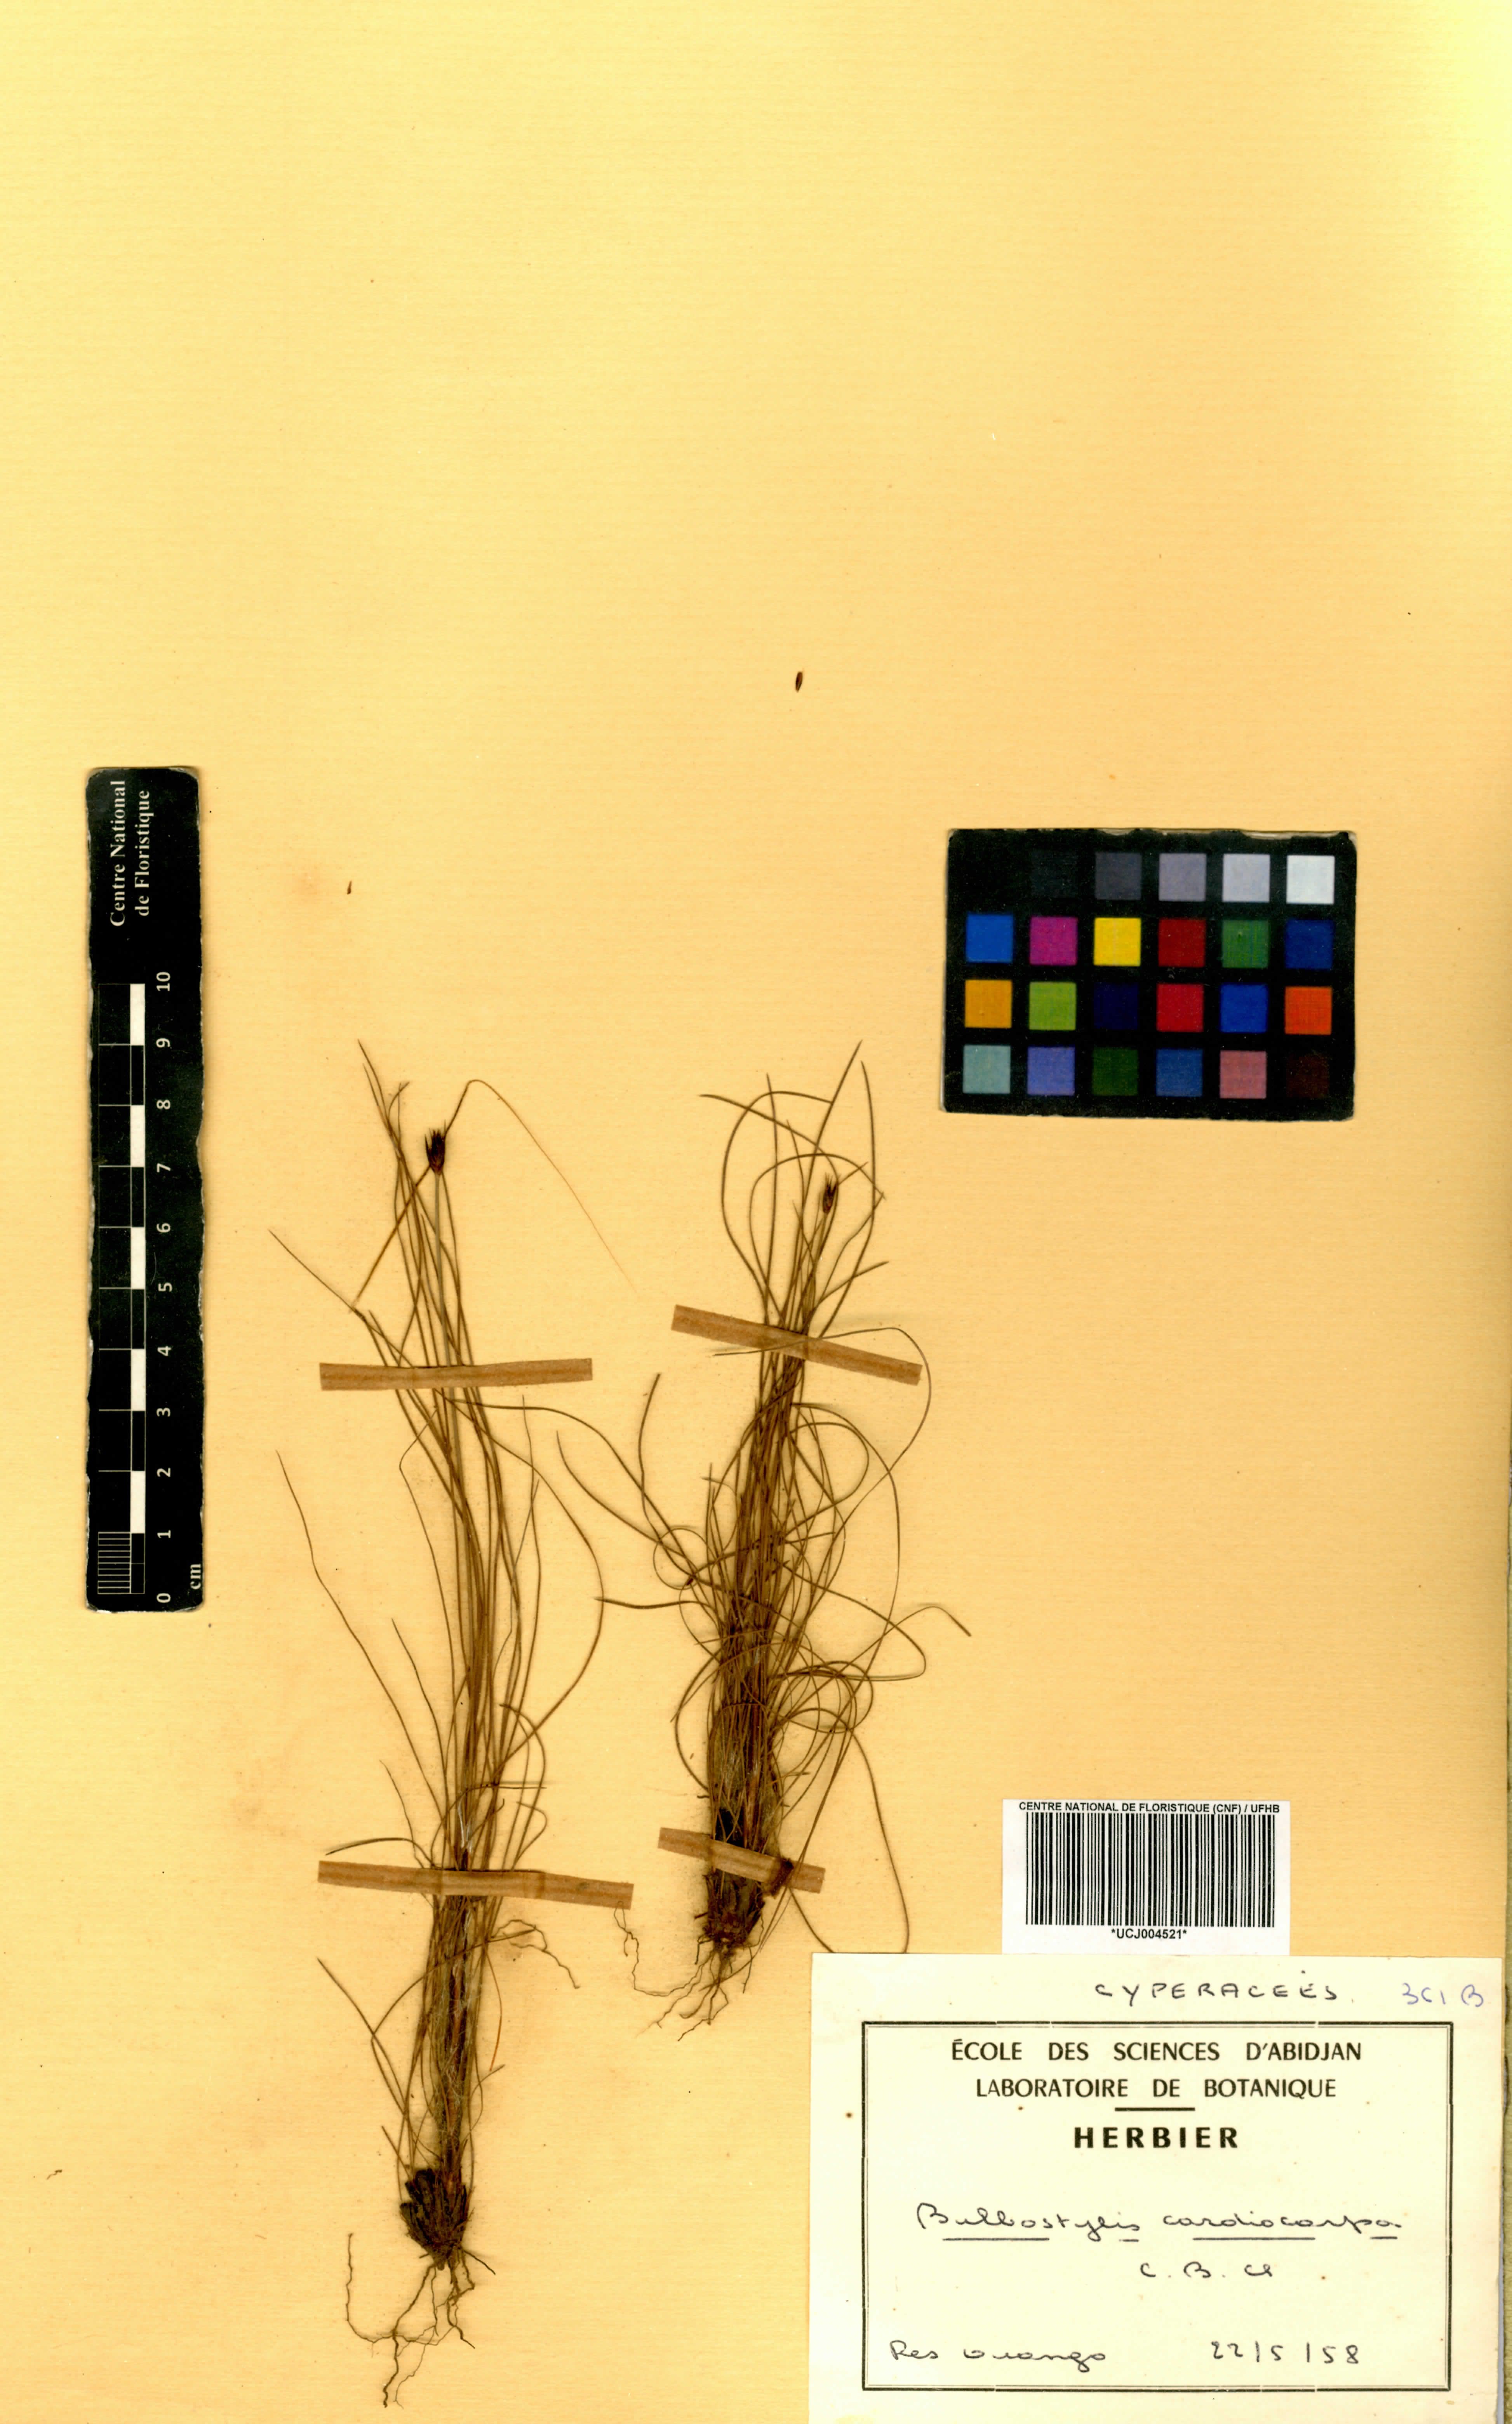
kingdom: Plantae
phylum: Tracheophyta
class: Liliopsida
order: Poales
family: Cyperaceae
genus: Bulbostylis
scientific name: Bulbostylis filamentosa
